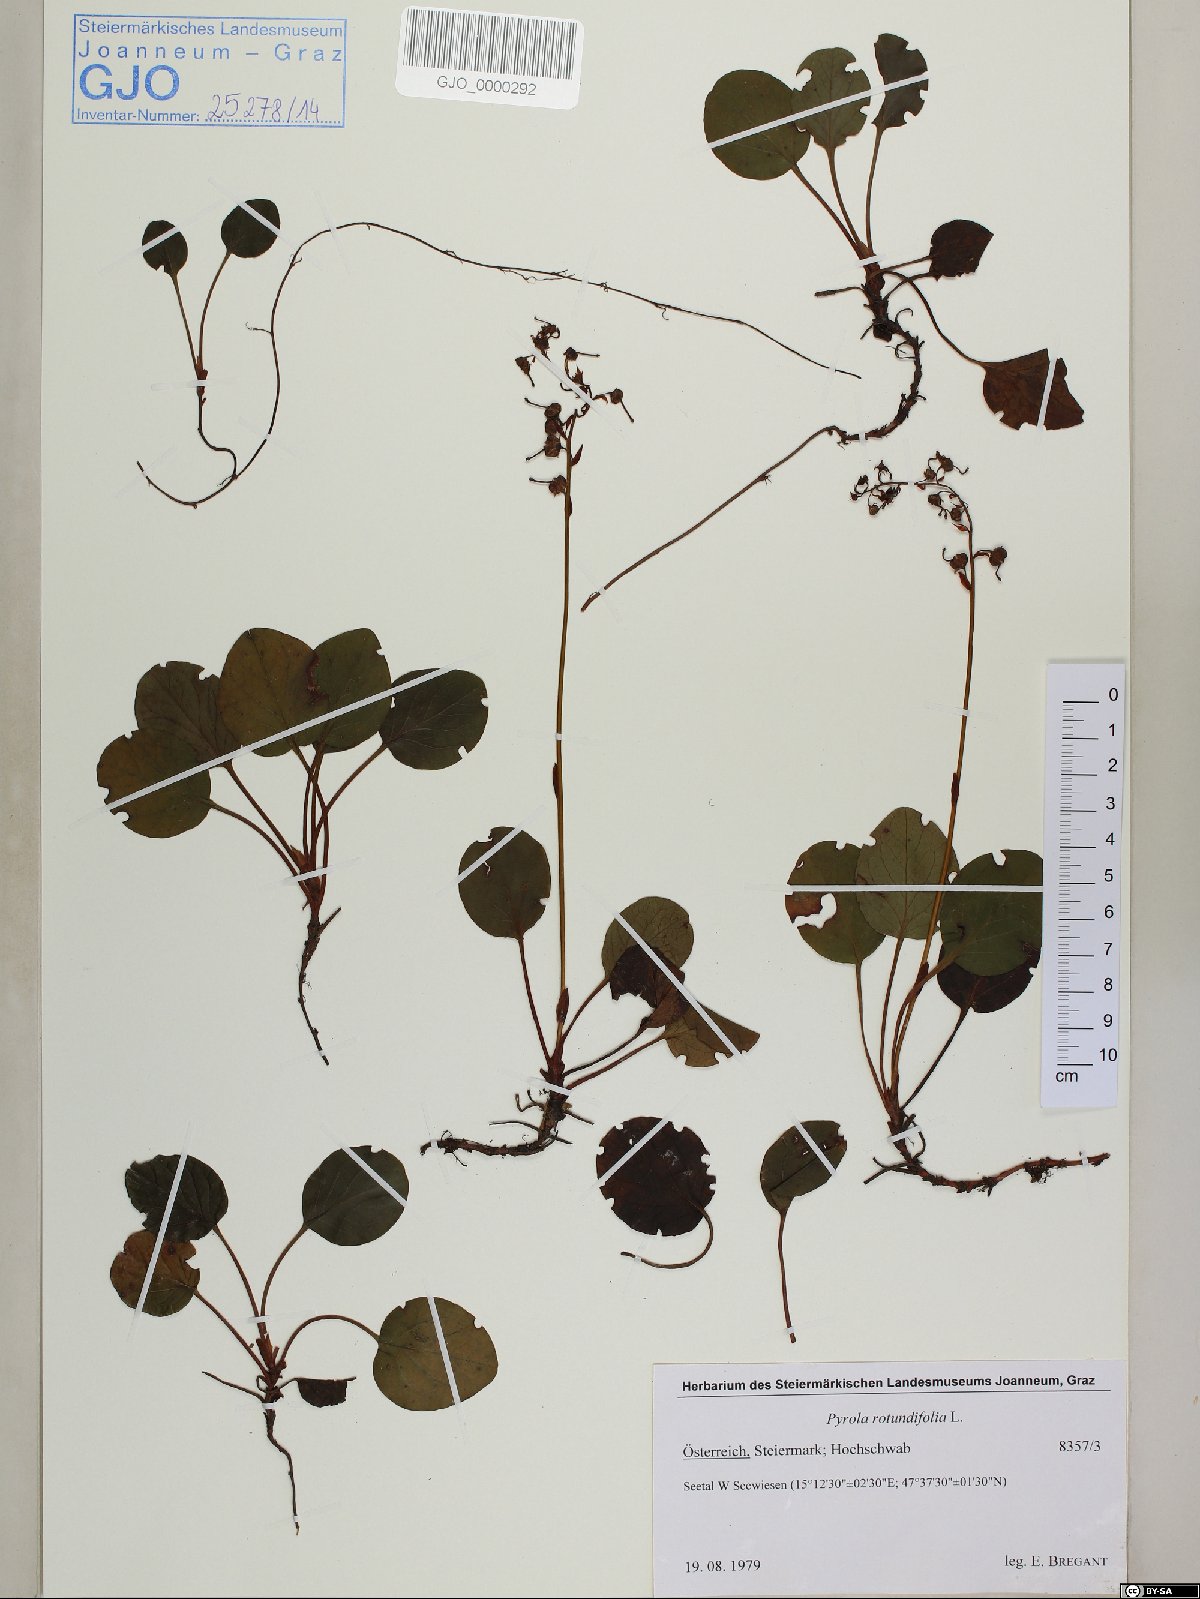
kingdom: Plantae
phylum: Tracheophyta
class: Magnoliopsida
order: Ericales
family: Ericaceae
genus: Pyrola
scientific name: Pyrola rotundifolia
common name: Round-leaved wintergreen
